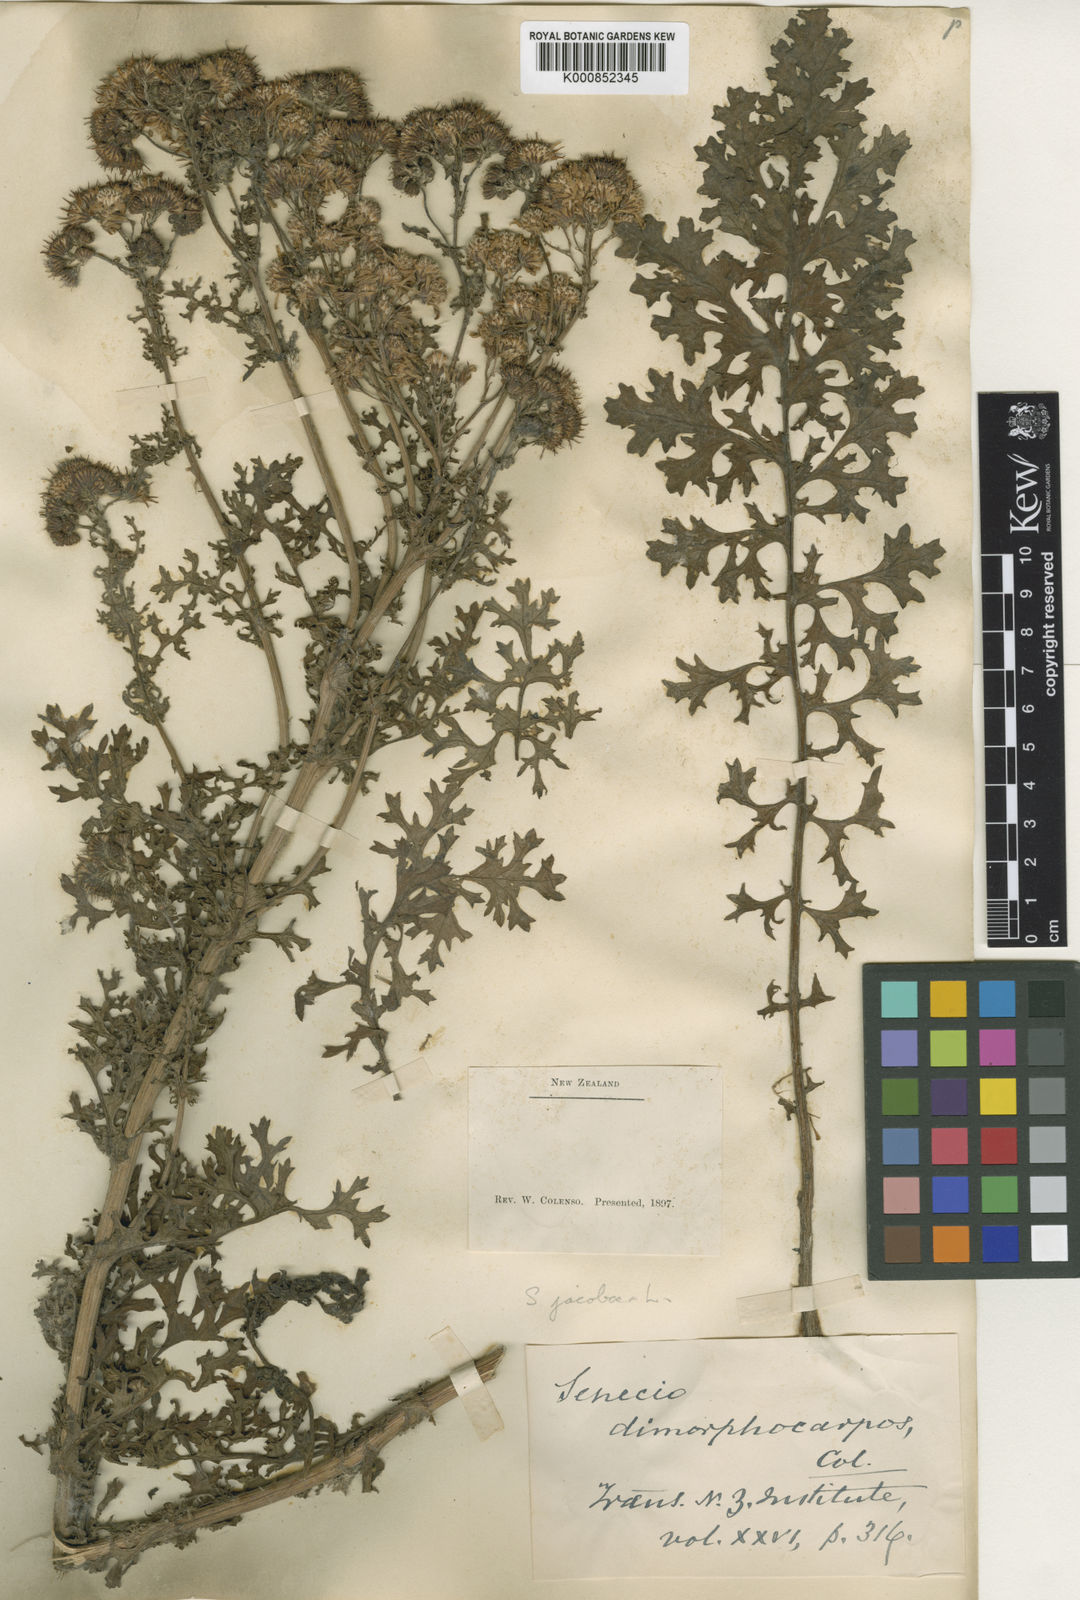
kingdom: Plantae
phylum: Tracheophyta
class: Magnoliopsida
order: Asterales
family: Asteraceae
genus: Jacobaea
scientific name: Jacobaea vulgaris
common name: Stinking willie
